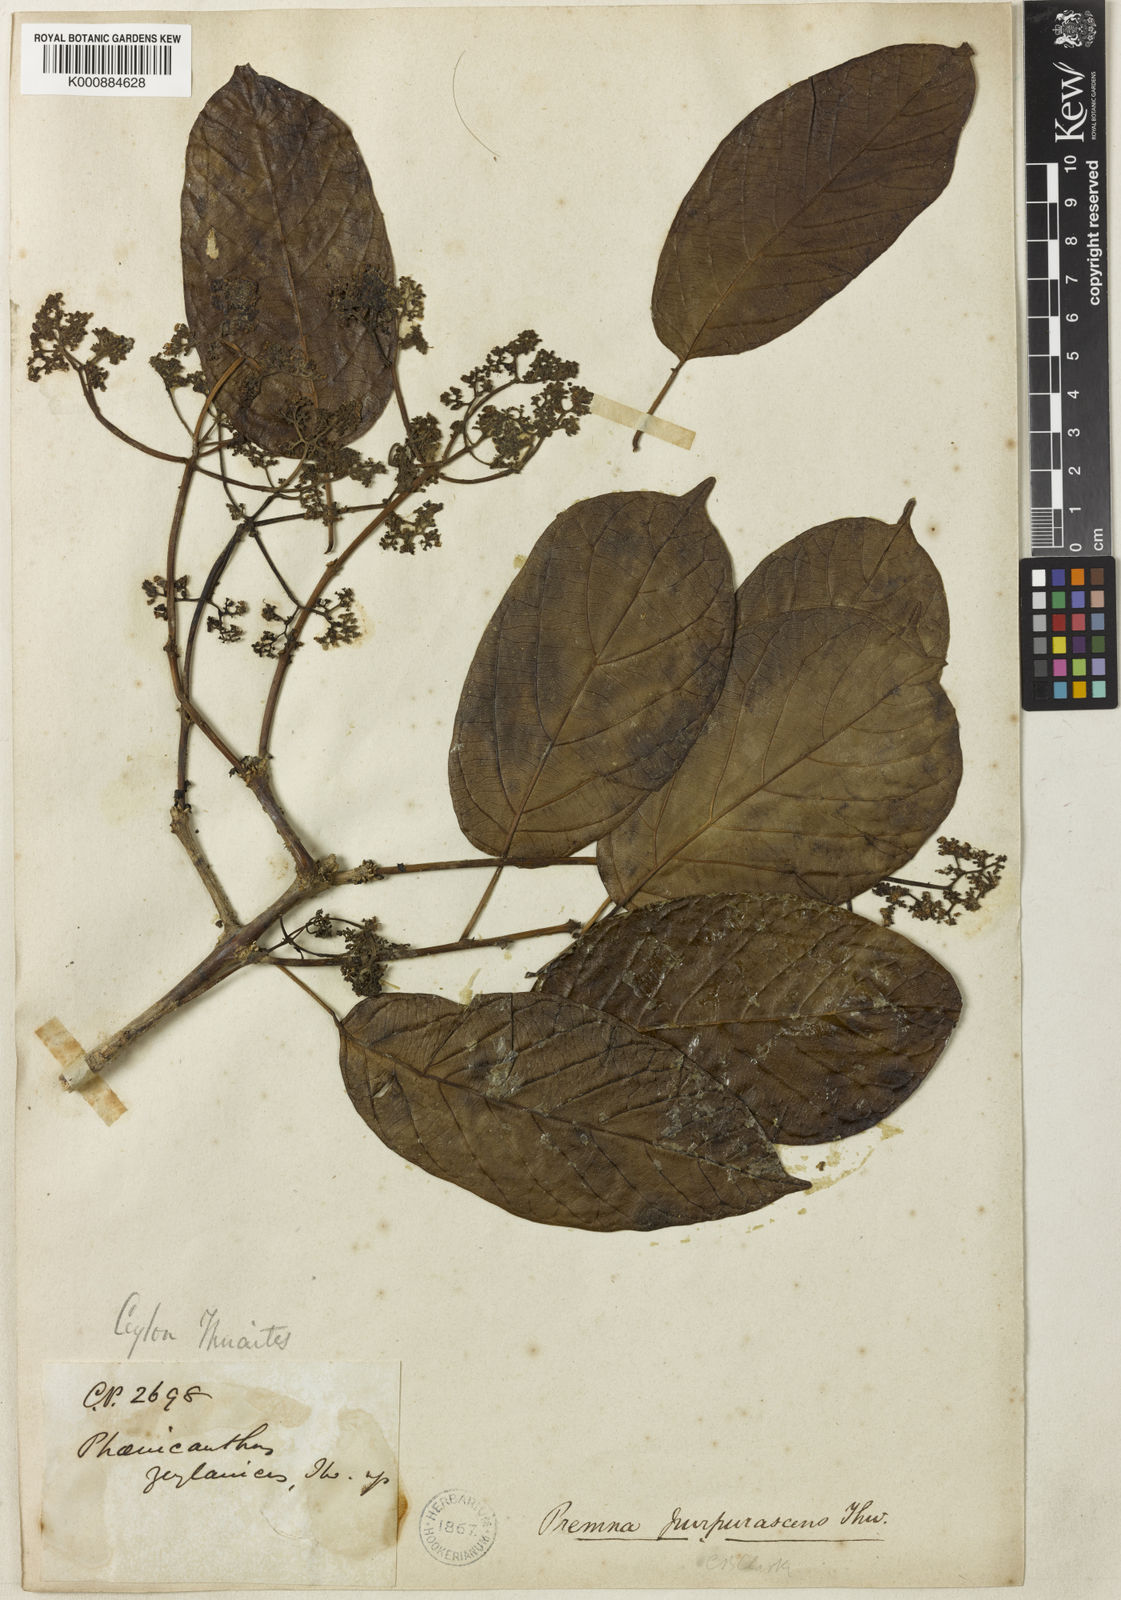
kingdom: Plantae
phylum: Tracheophyta
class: Magnoliopsida
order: Lamiales
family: Lamiaceae
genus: Premna
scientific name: Premna purpurascens
